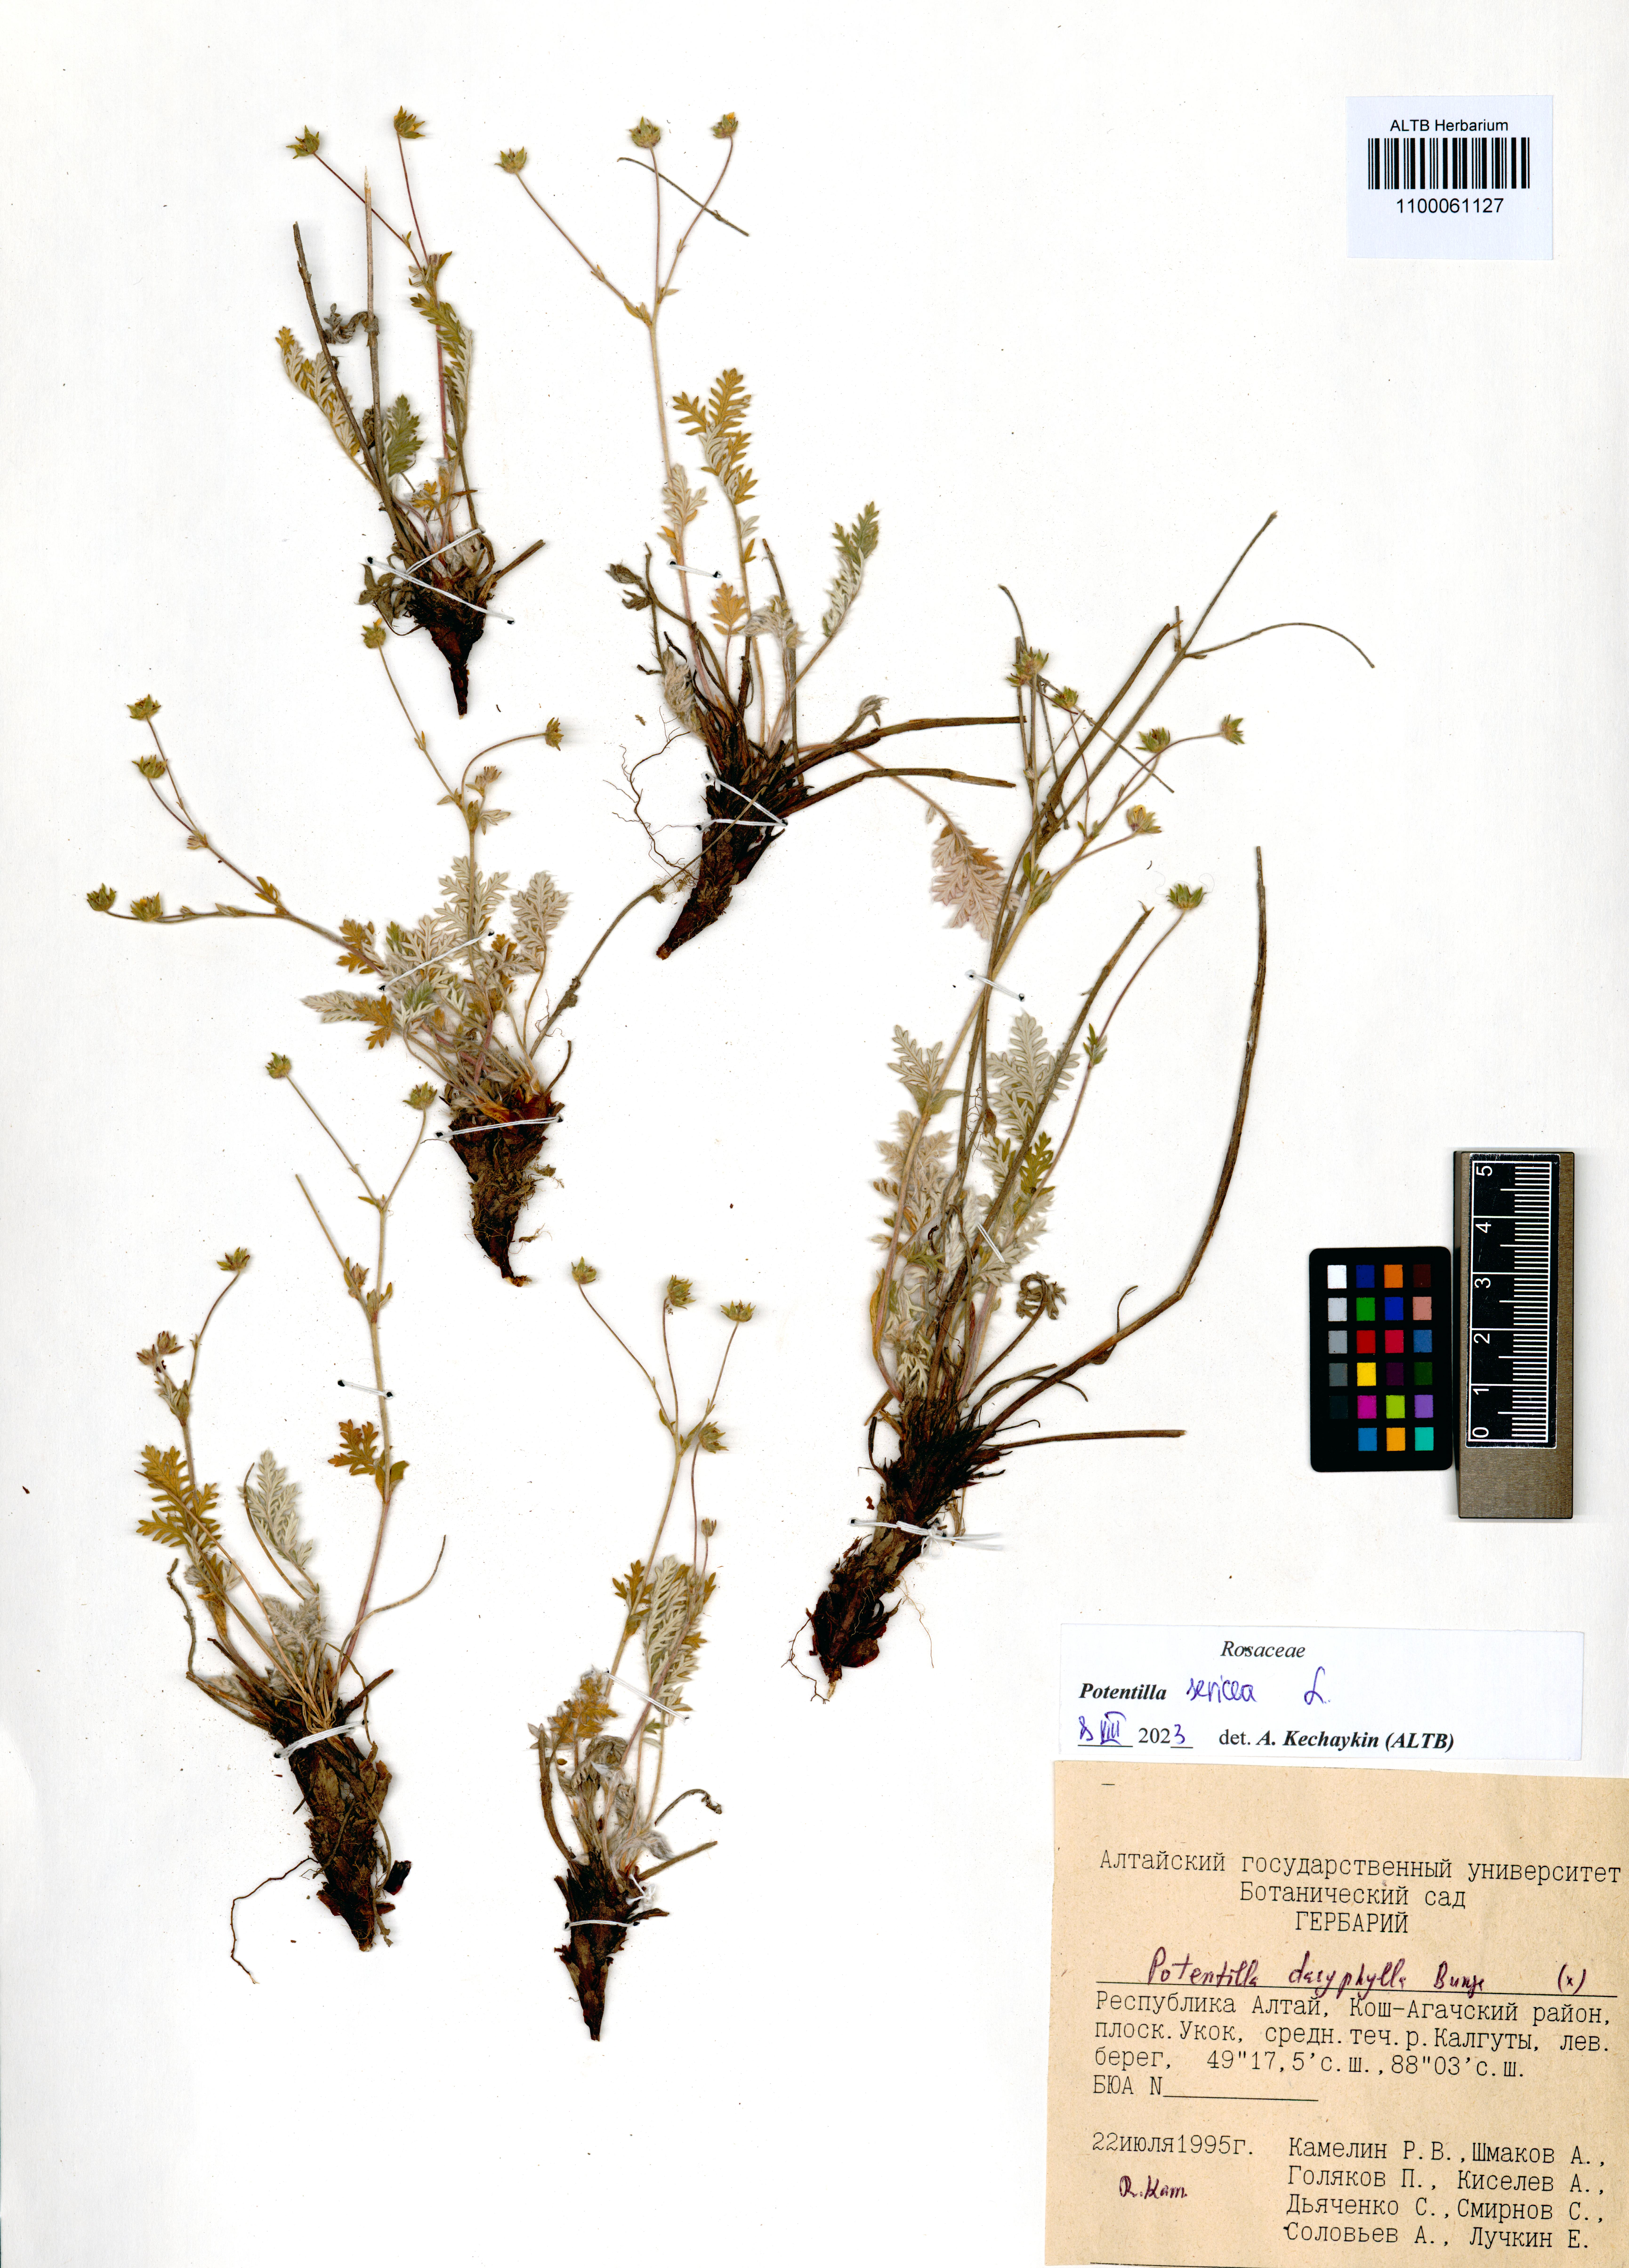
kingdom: Plantae
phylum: Tracheophyta
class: Magnoliopsida
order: Rosales
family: Rosaceae
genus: Potentilla
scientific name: Potentilla sericea
